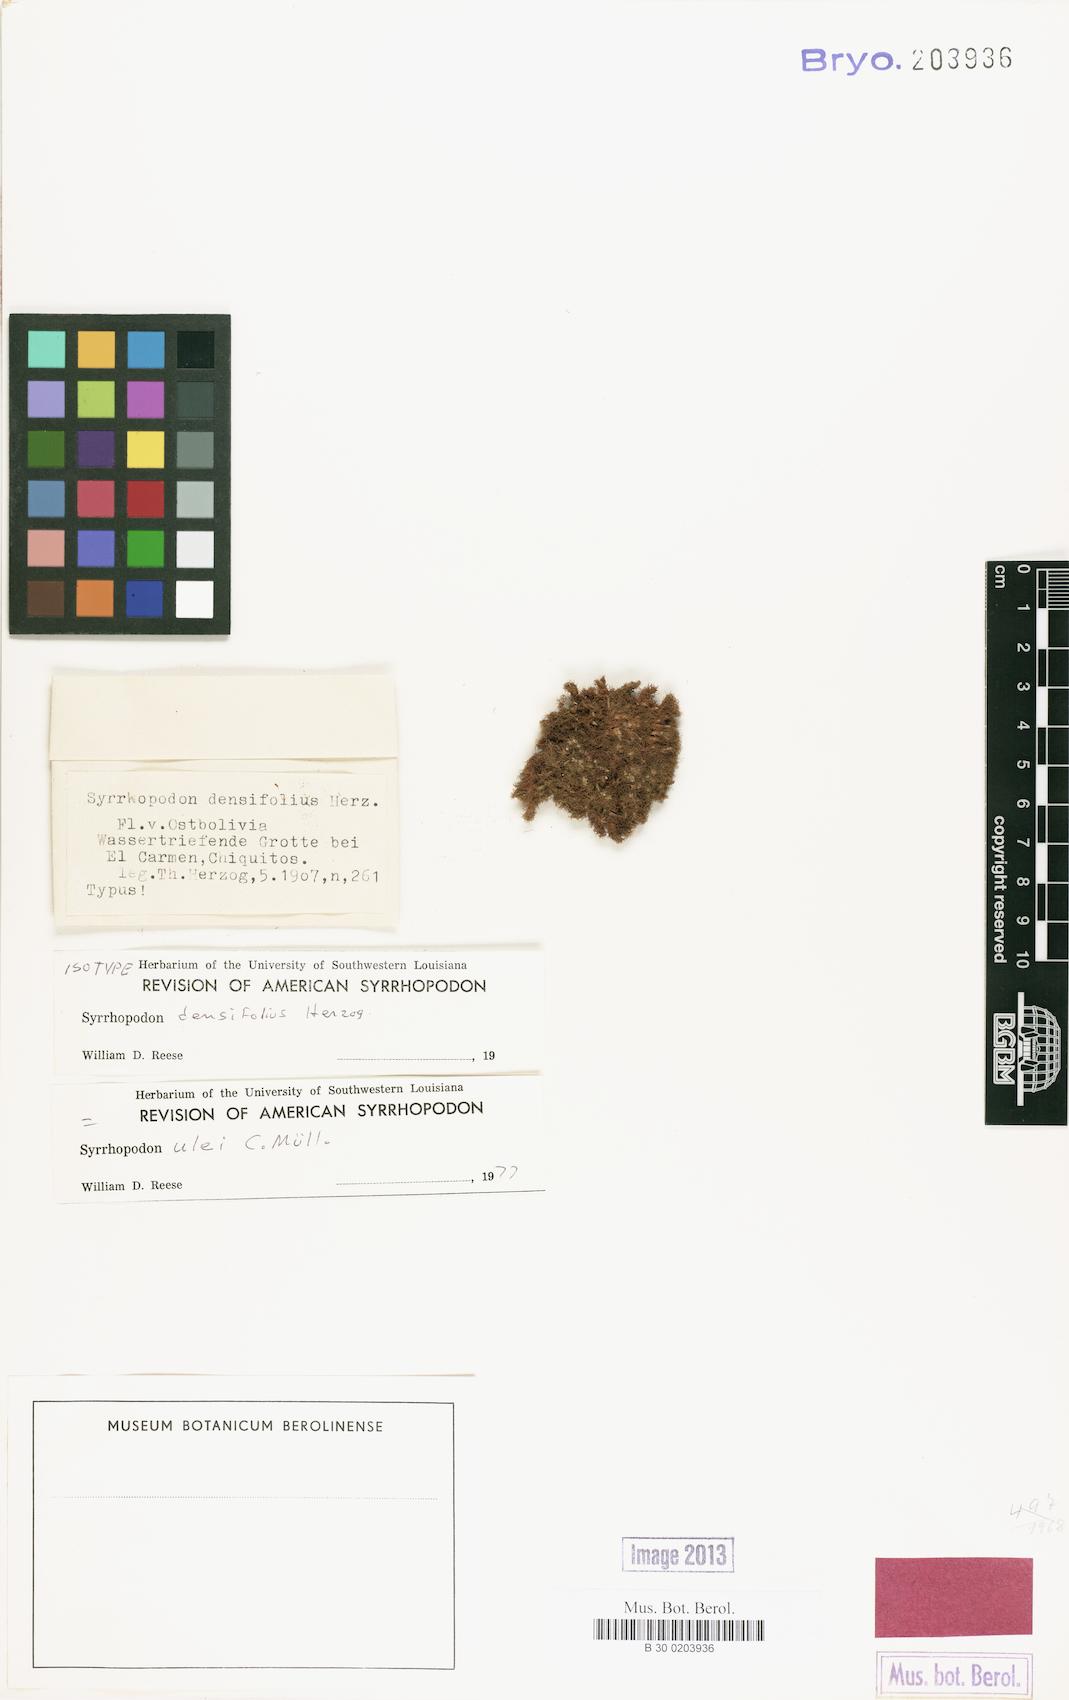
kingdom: Plantae
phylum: Bryophyta
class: Bryopsida
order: Dicranales
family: Calymperaceae
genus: Syrrhopodon
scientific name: Syrrhopodon tortilis
